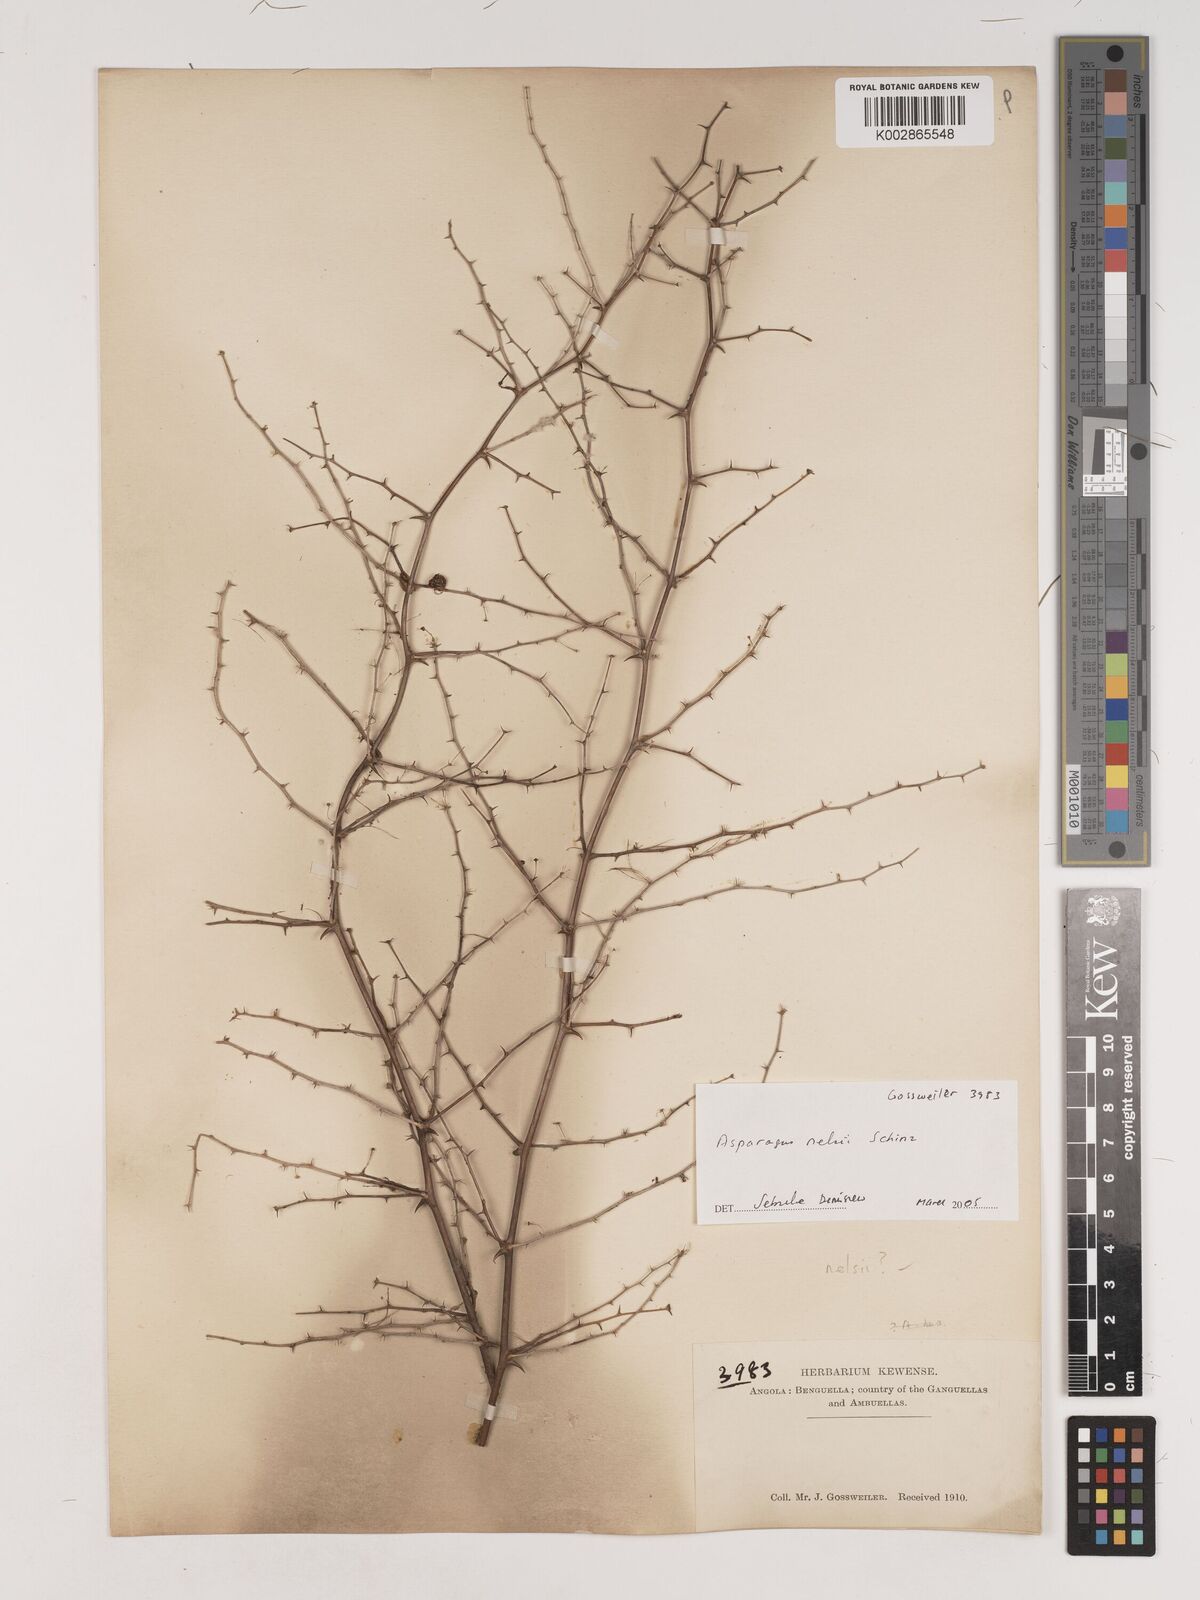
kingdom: Plantae
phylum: Tracheophyta
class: Liliopsida
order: Asparagales
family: Asparagaceae
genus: Asparagus
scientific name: Asparagus nelsii
